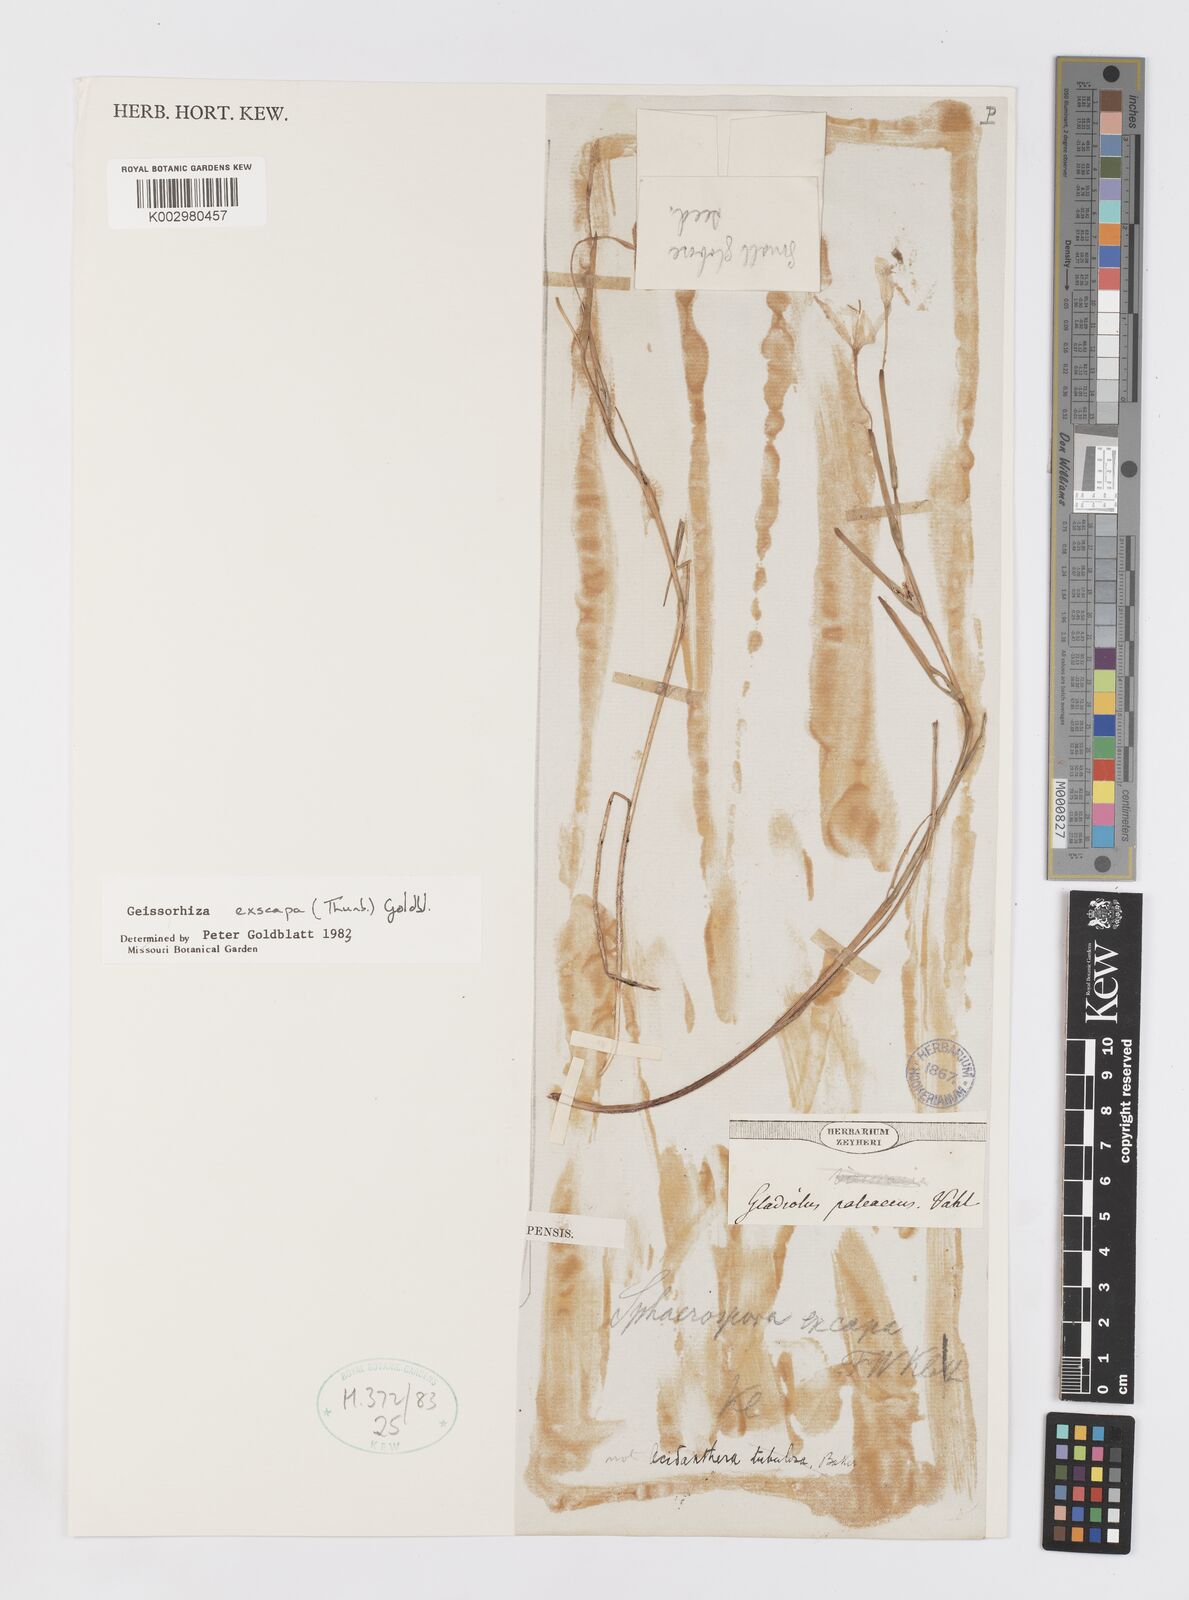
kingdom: Plantae
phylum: Tracheophyta
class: Liliopsida
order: Asparagales
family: Iridaceae
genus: Geissorhiza
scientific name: Geissorhiza exscapa
